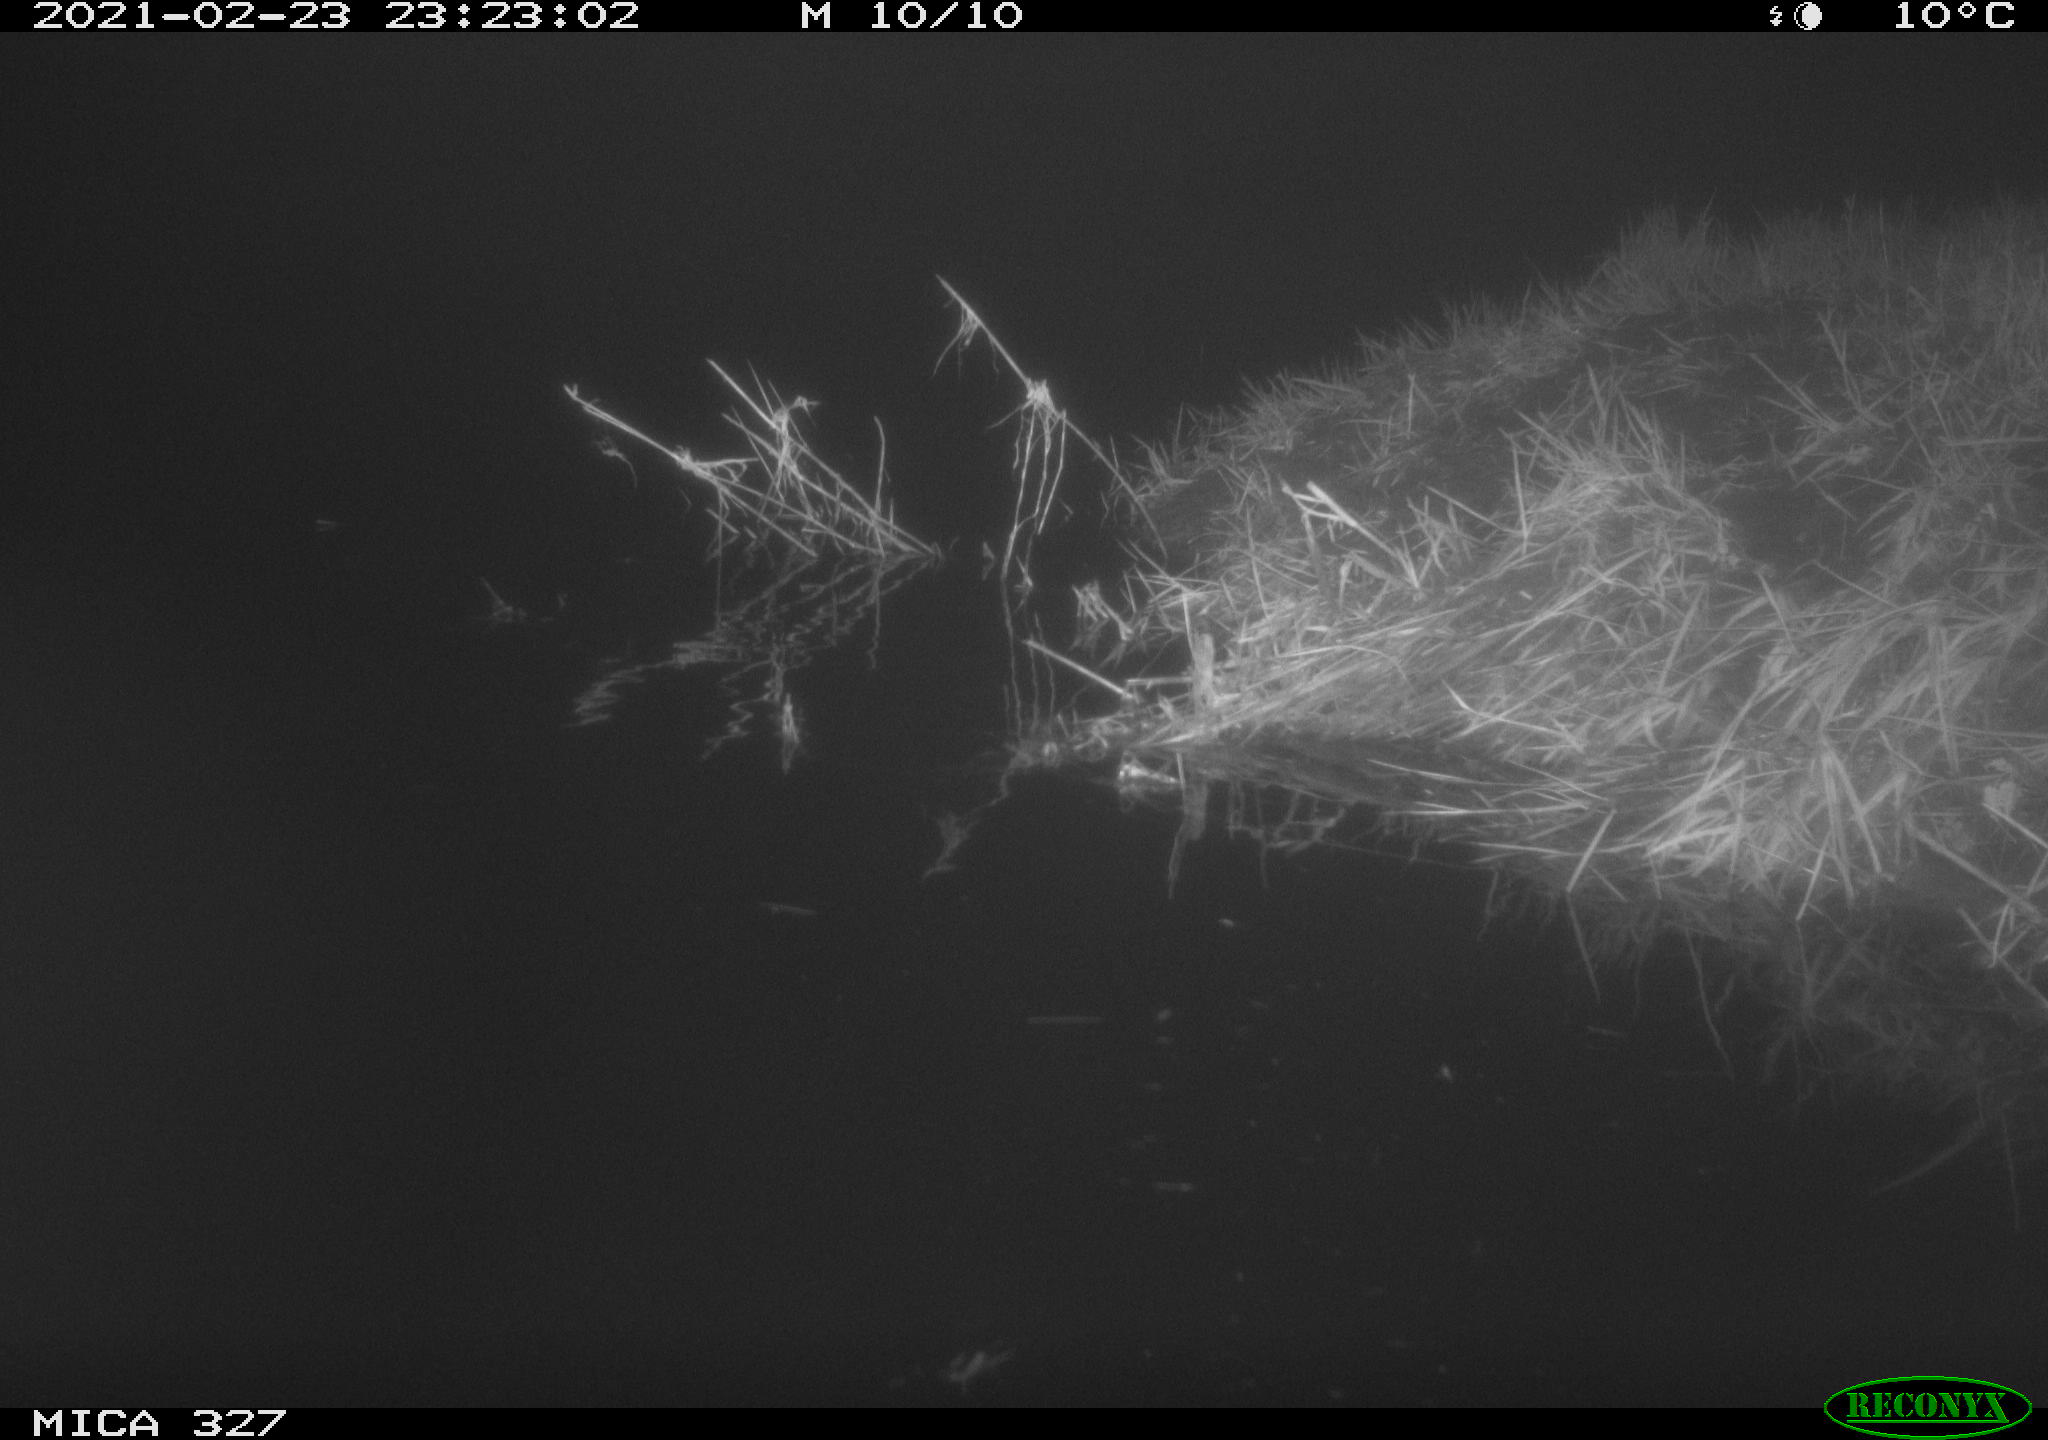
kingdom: Animalia
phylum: Chordata
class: Mammalia
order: Rodentia
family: Cricetidae
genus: Ondatra
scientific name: Ondatra zibethicus
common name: Muskrat
